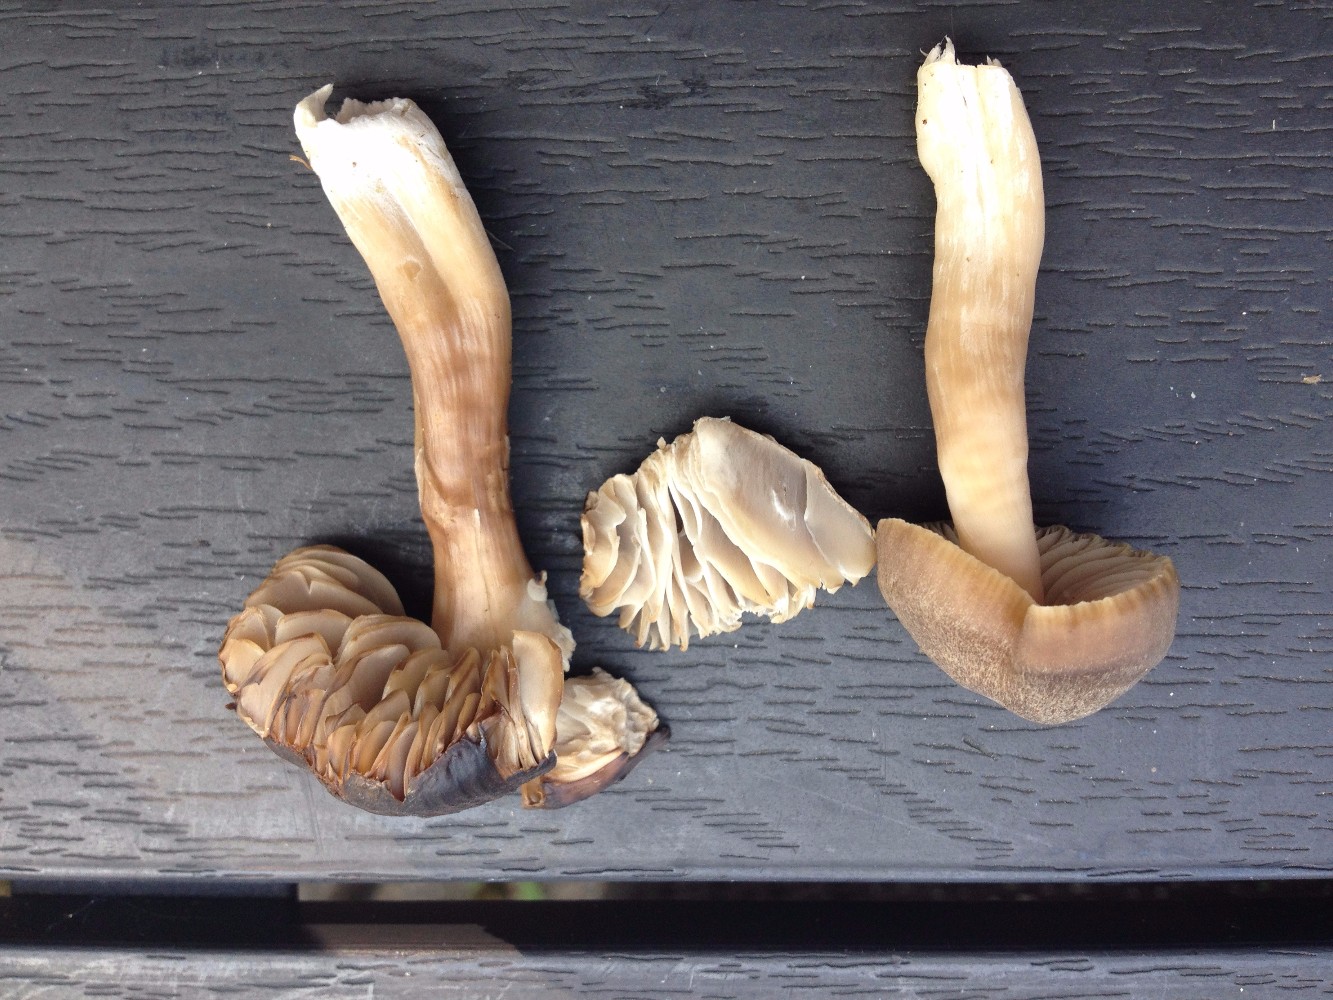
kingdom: Fungi
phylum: Basidiomycota
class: Agaricomycetes
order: Agaricales
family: Hygrophoraceae
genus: Neohygrocybe
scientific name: Neohygrocybe nitrata
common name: stinkende vokshat
